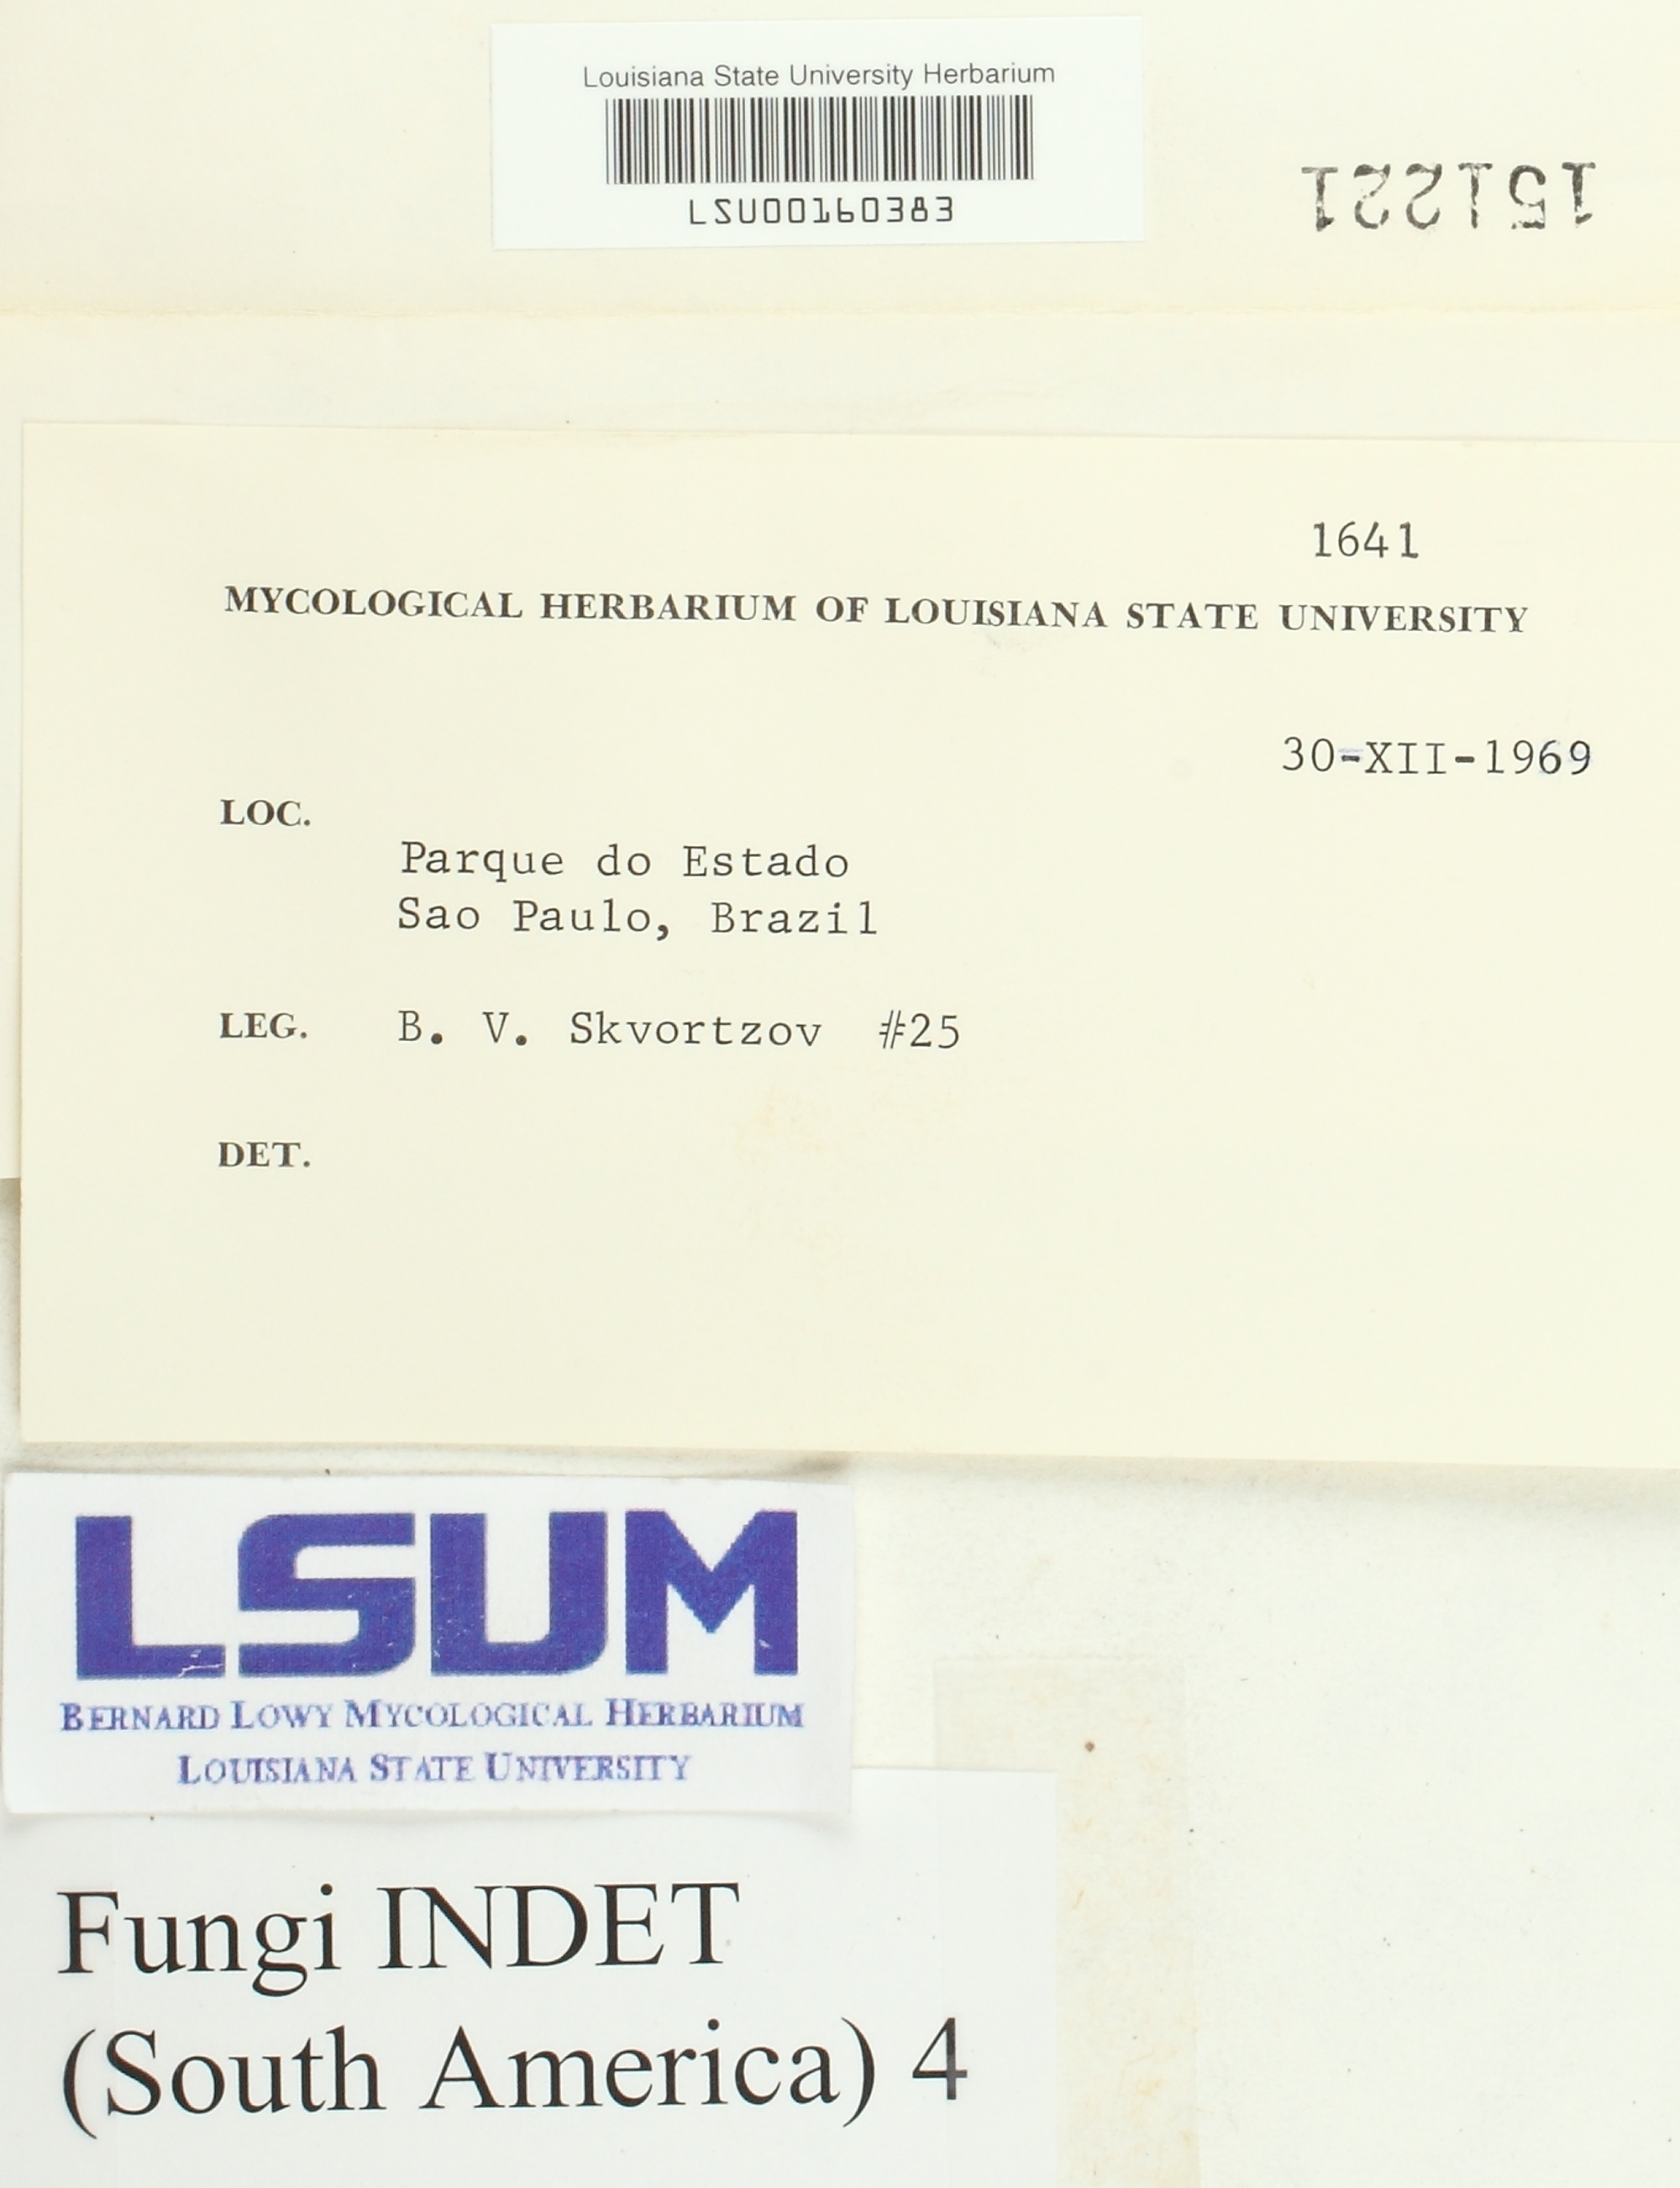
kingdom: Fungi
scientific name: Fungi
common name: Fungi
